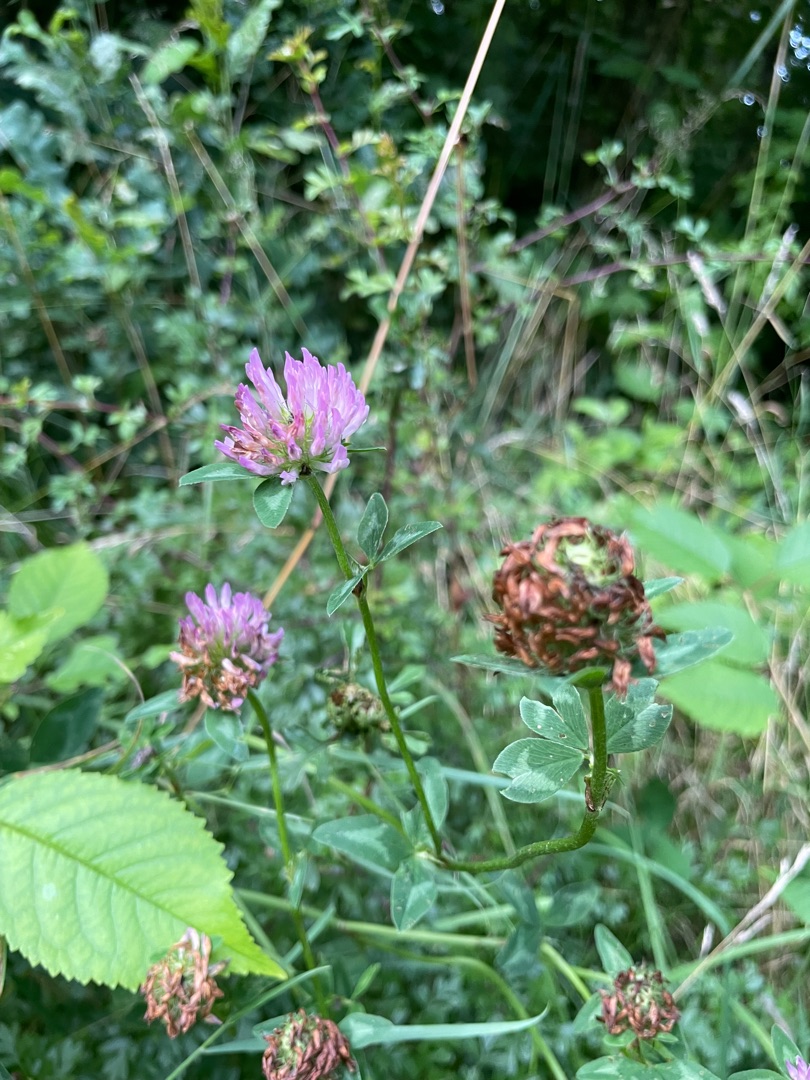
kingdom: Plantae
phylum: Tracheophyta
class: Magnoliopsida
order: Fabales
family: Fabaceae
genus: Trifolium
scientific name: Trifolium pratense
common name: Rød-kløver
